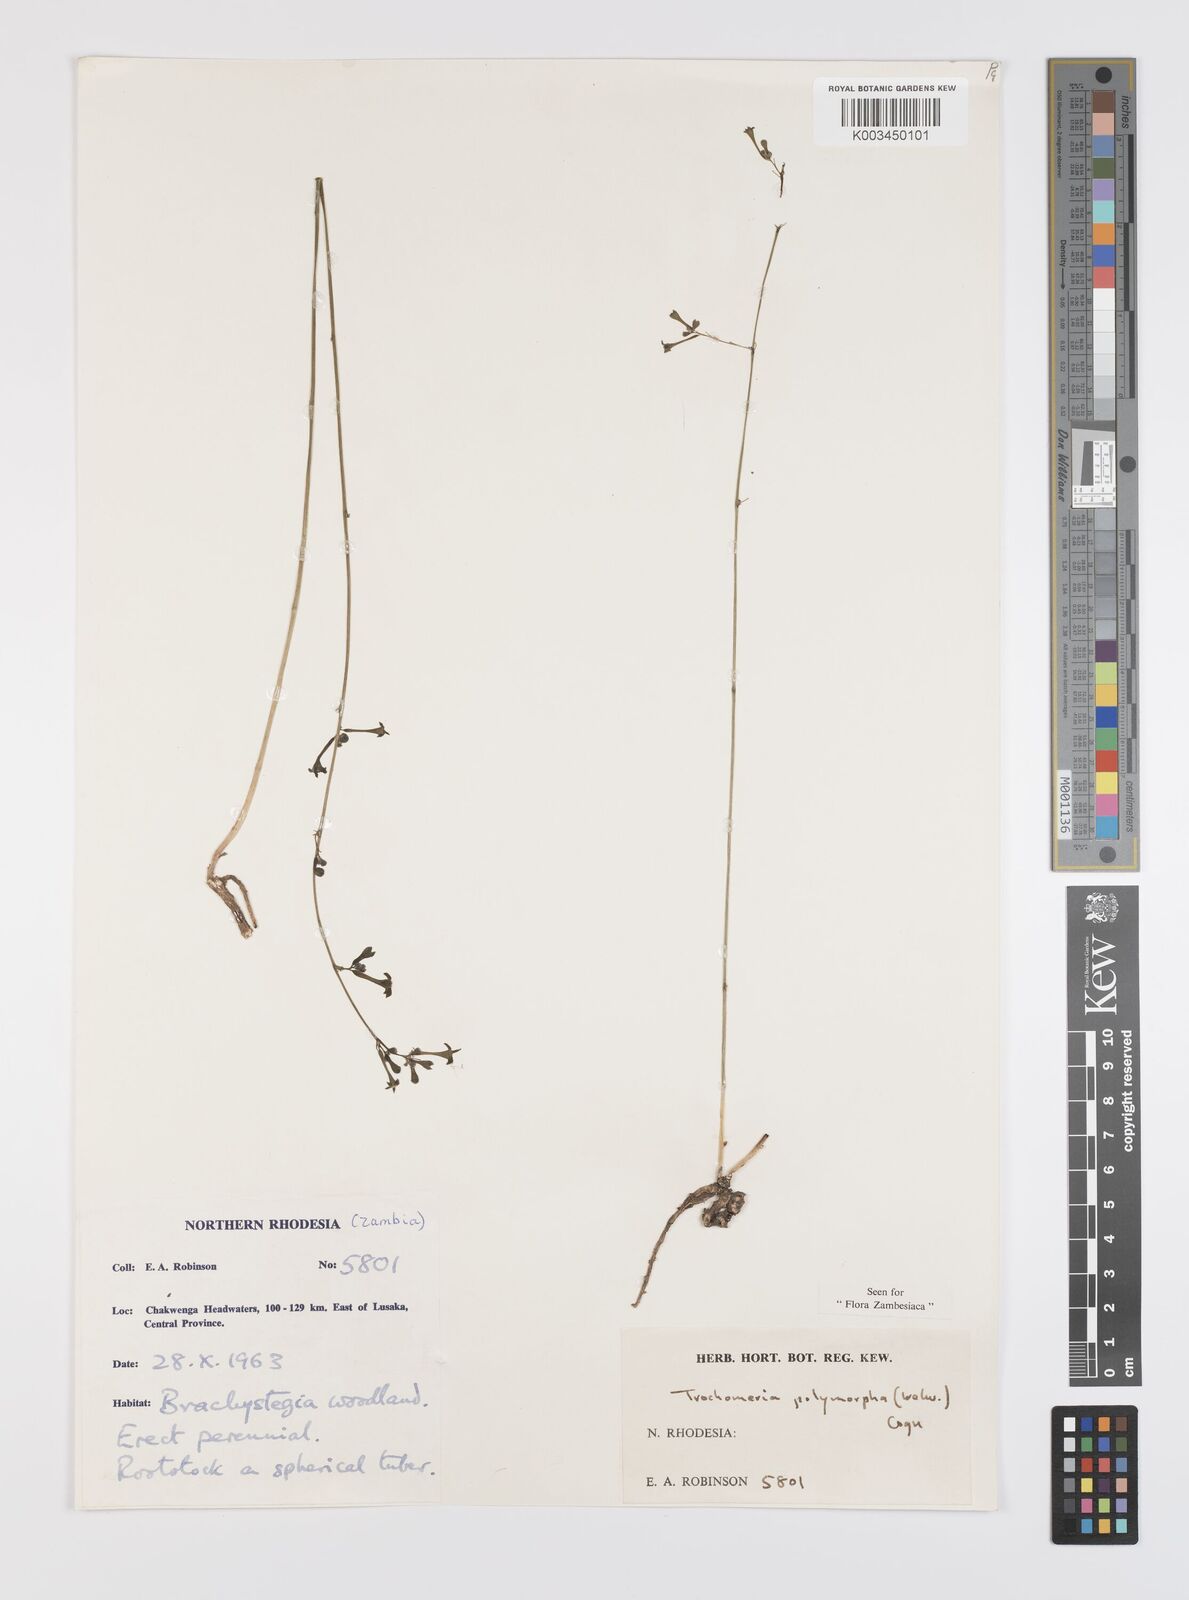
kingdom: Plantae
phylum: Tracheophyta
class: Magnoliopsida
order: Cucurbitales
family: Cucurbitaceae
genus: Trochomeria
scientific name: Trochomeria polymorpha
